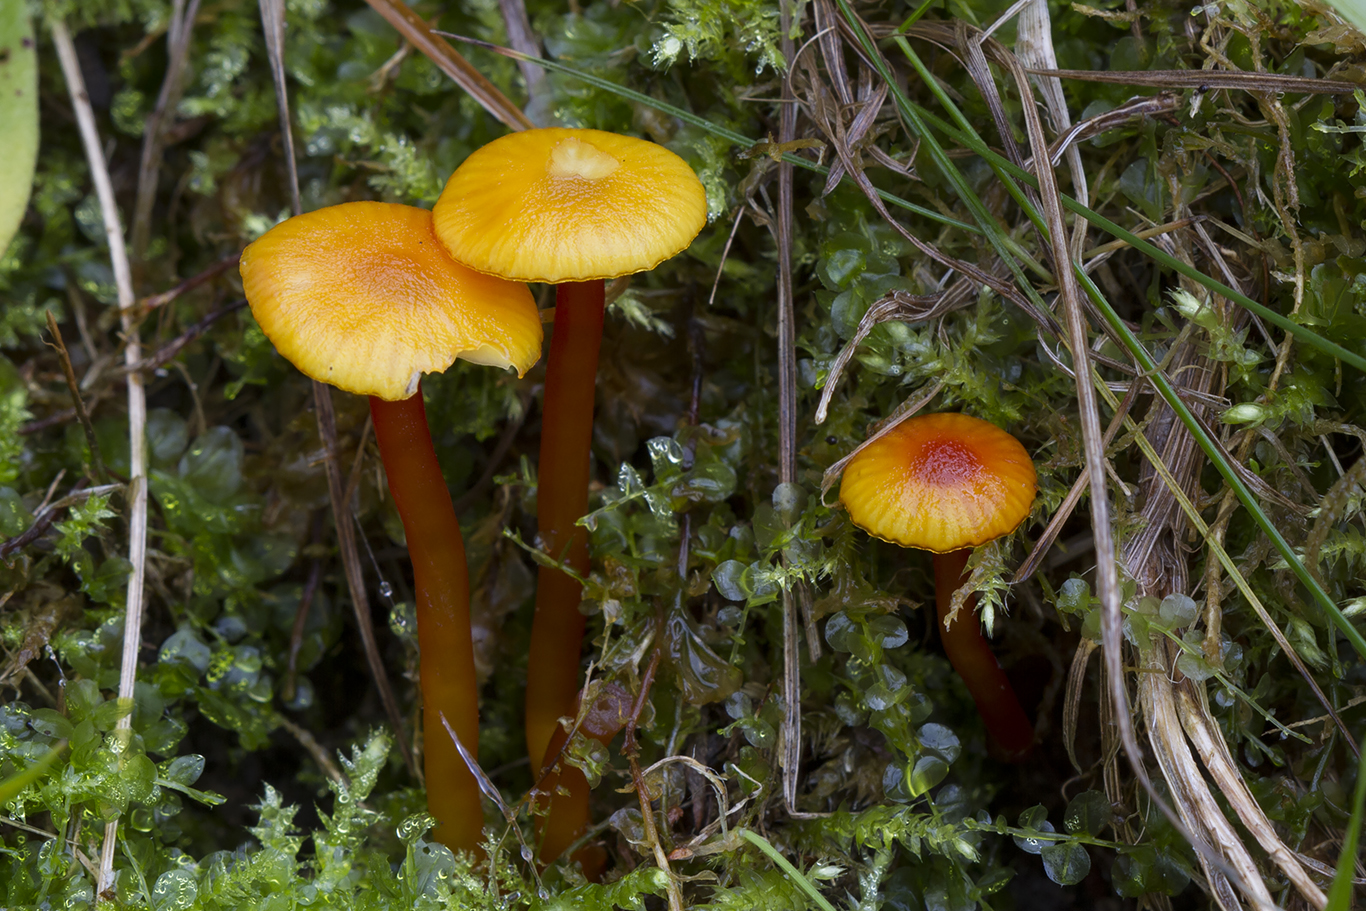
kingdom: Fungi
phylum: Basidiomycota
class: Agaricomycetes
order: Agaricales
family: Hygrophoraceae
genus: Hygrocybe
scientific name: Hygrocybe glutinipes
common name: slimstokket vokshat
